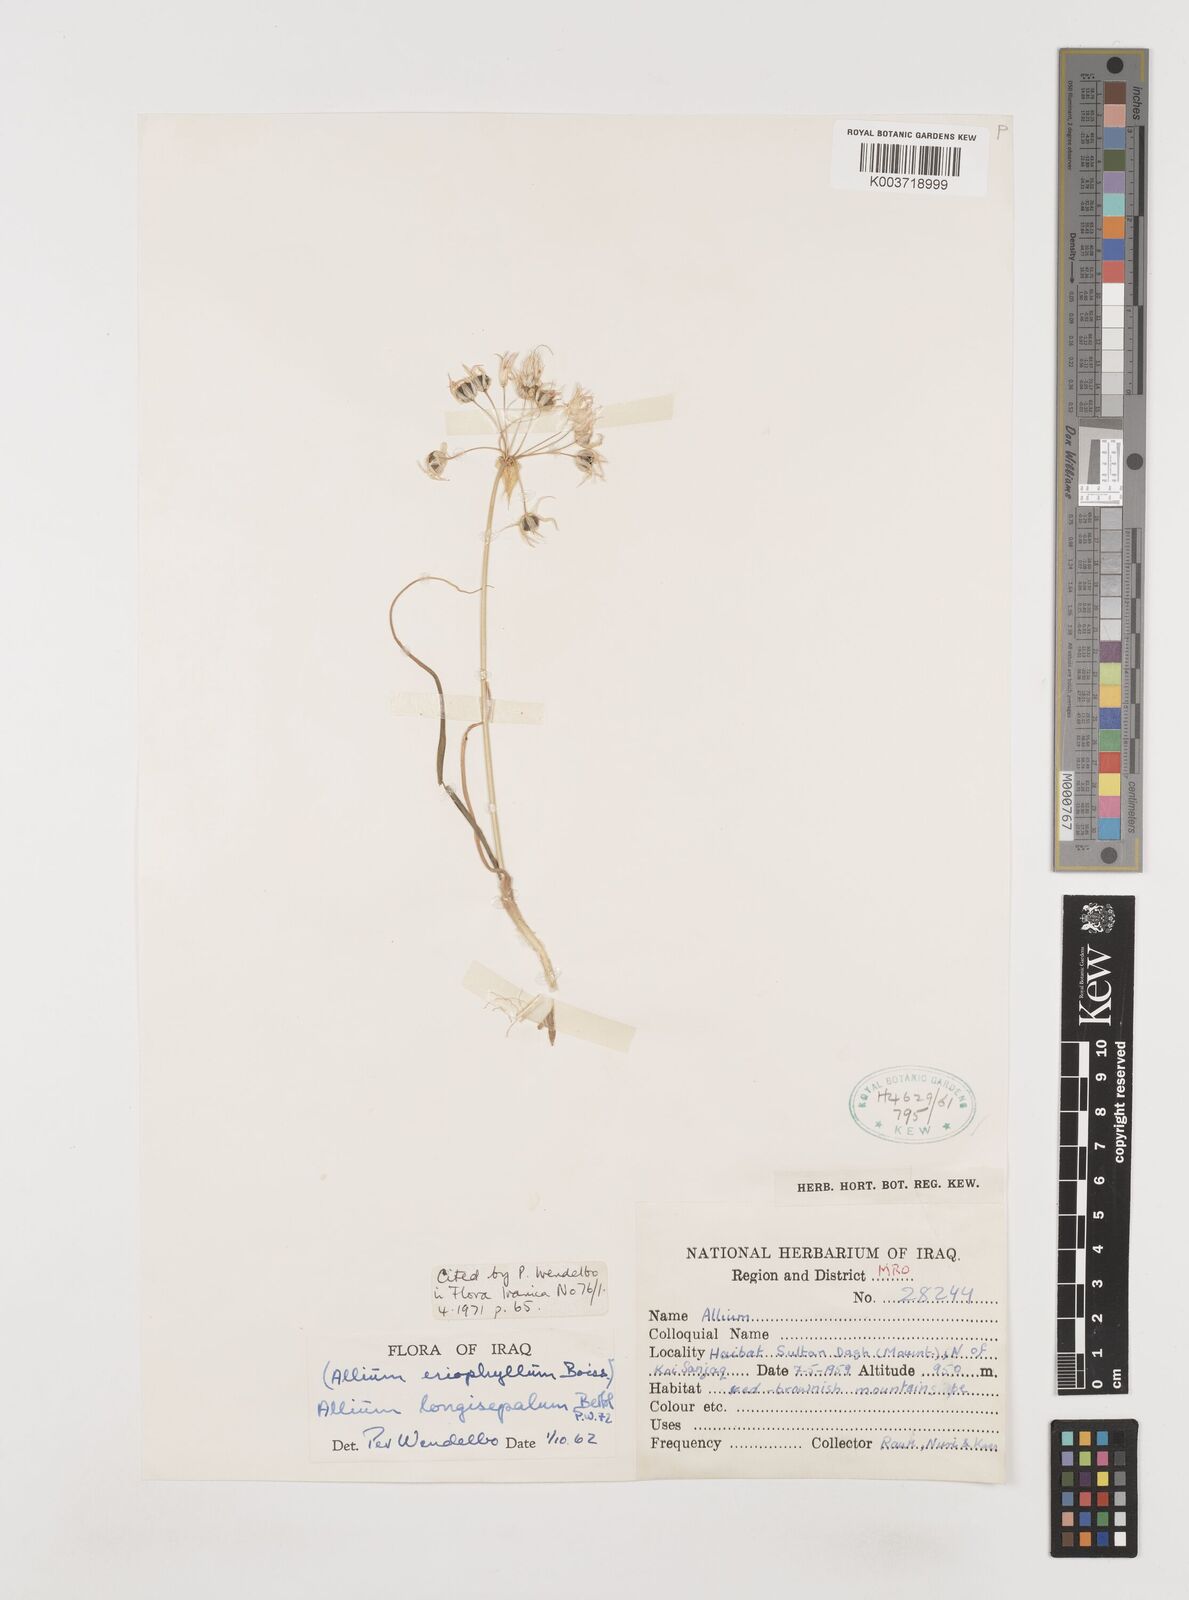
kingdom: Plantae
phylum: Tracheophyta
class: Liliopsida
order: Asparagales
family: Amaryllidaceae
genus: Allium
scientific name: Allium longisepalum
